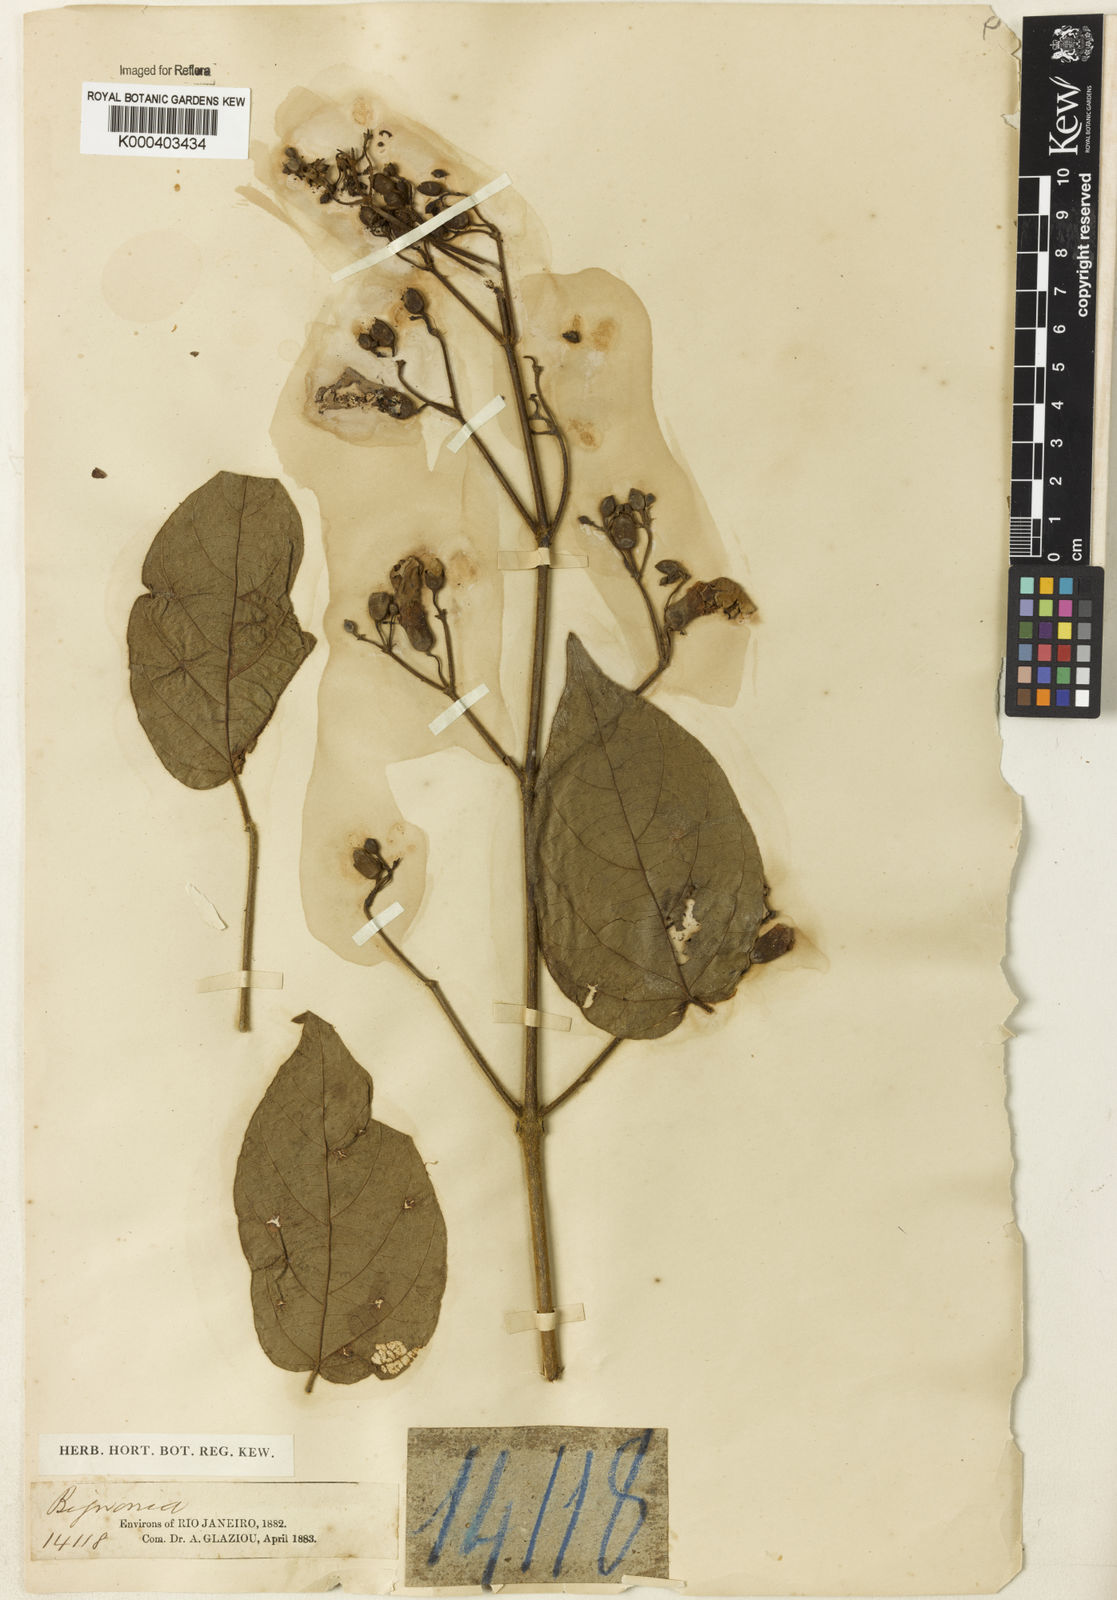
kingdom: Plantae
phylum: Tracheophyta
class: Magnoliopsida
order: Rosales
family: Rhamnaceae
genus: Arrabidaea
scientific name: Arrabidaea
